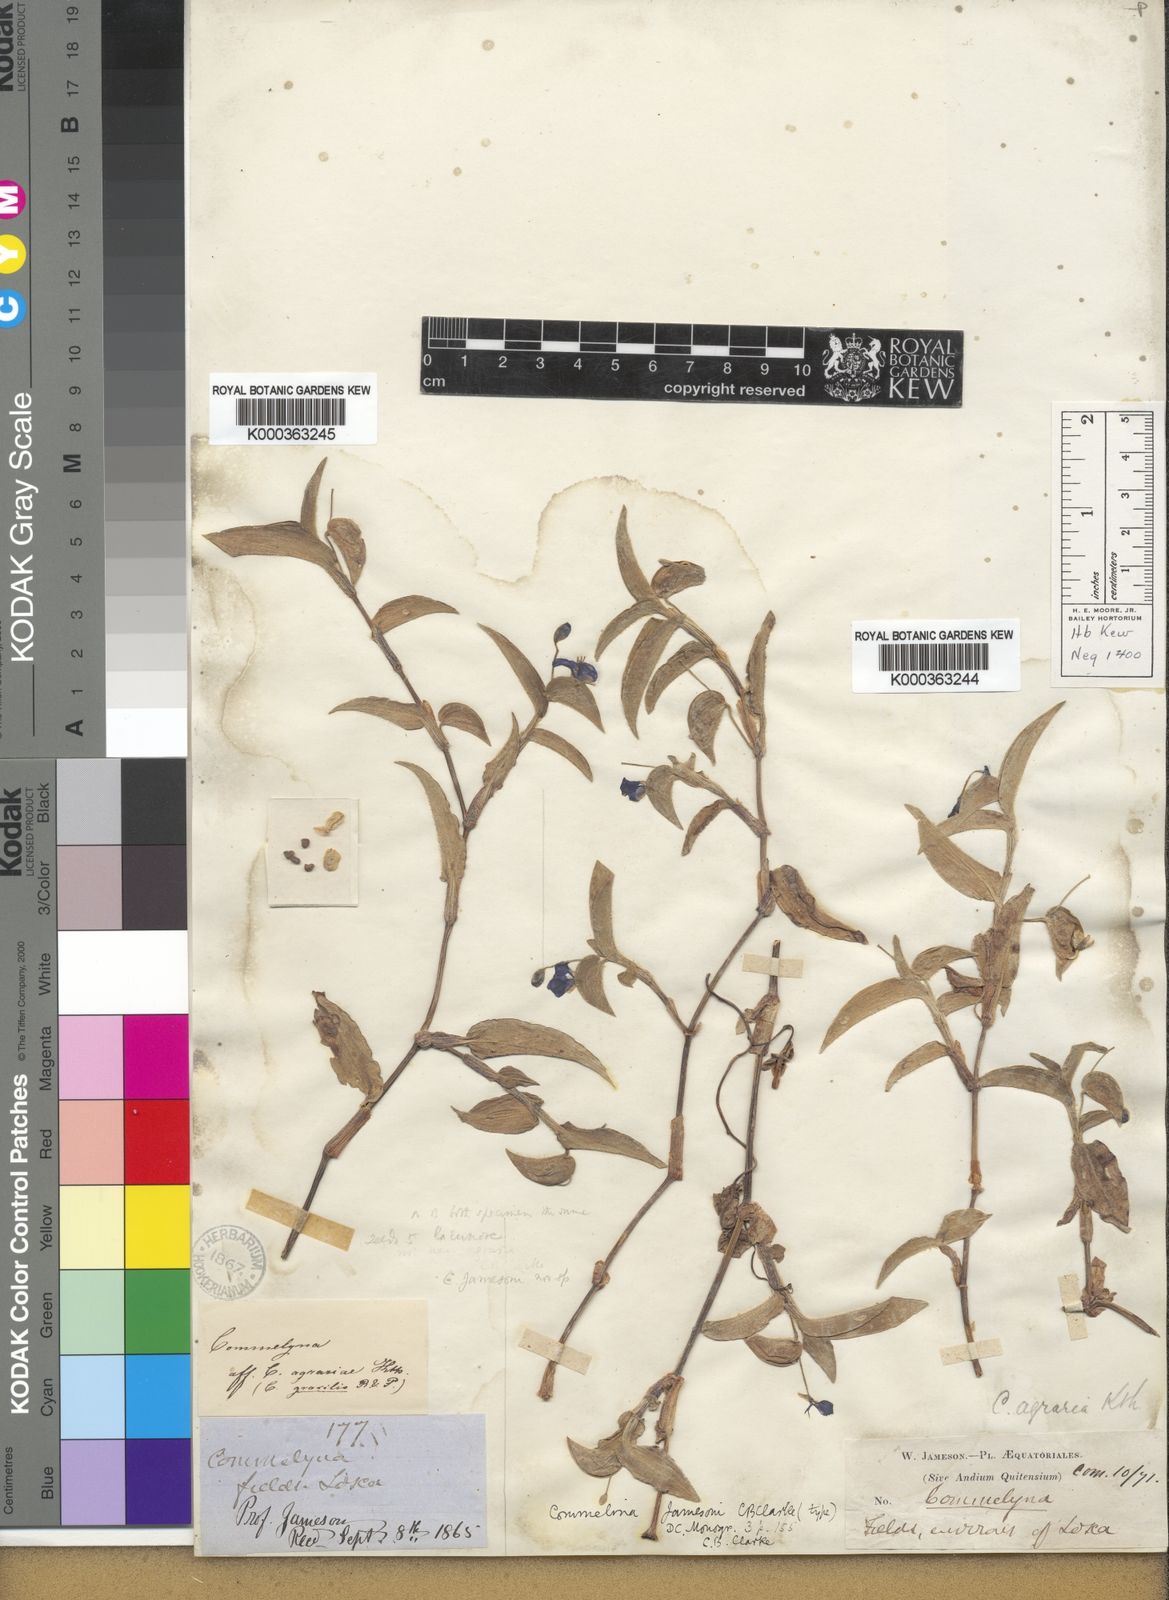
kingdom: Plantae
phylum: Tracheophyta
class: Liliopsida
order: Commelinales
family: Commelinaceae
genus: Commelina
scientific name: Commelina
